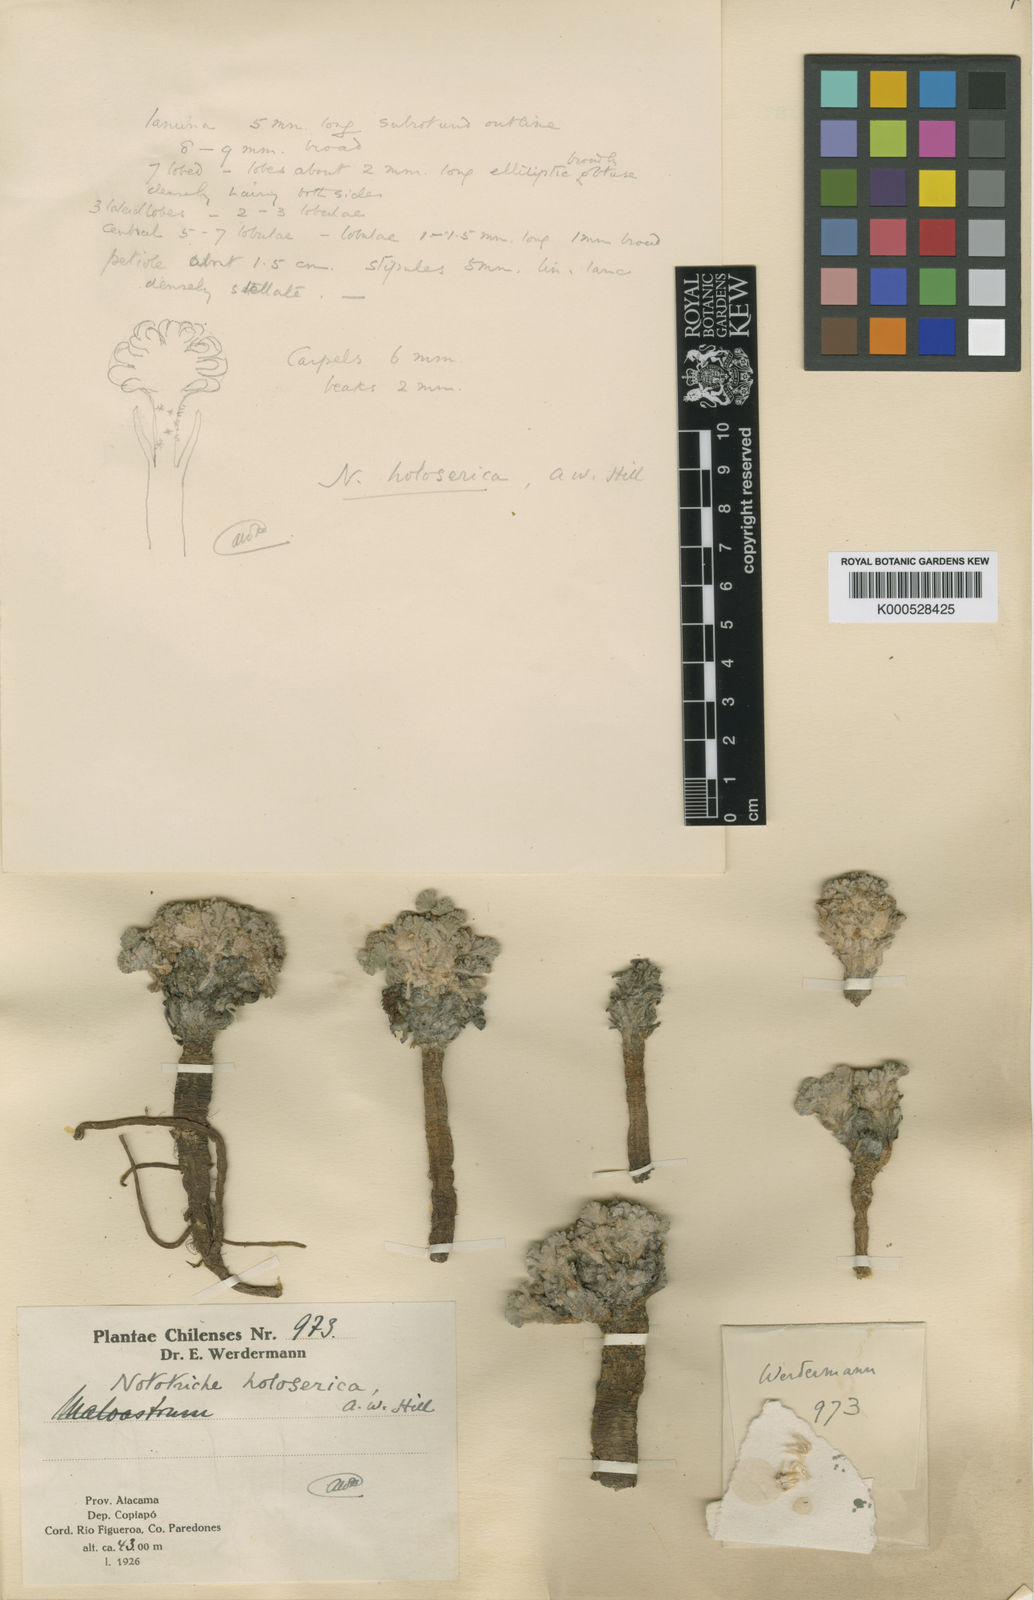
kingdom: Plantae
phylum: Tracheophyta
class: Magnoliopsida
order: Malvales
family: Malvaceae
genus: Nototriche
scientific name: Nototriche compacta
